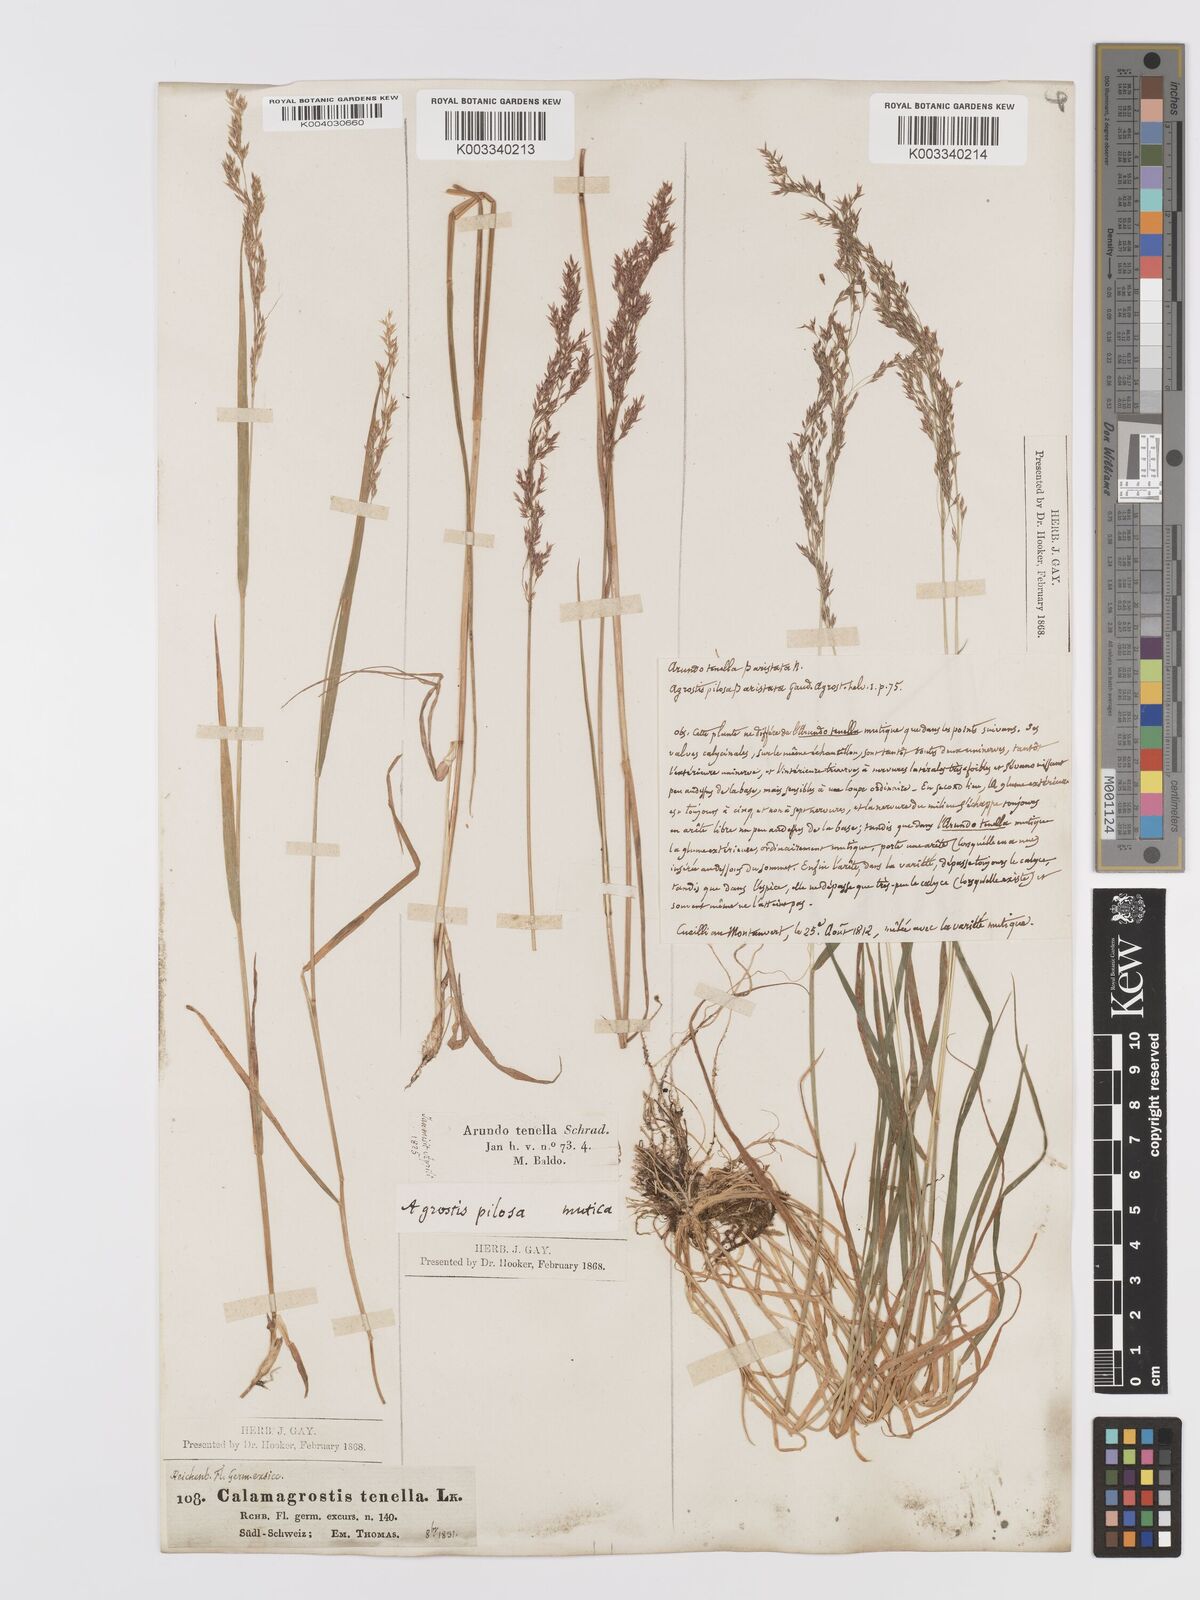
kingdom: Plantae
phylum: Tracheophyta
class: Liliopsida
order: Poales
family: Poaceae
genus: Agrostis
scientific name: Agrostis schraderiana
